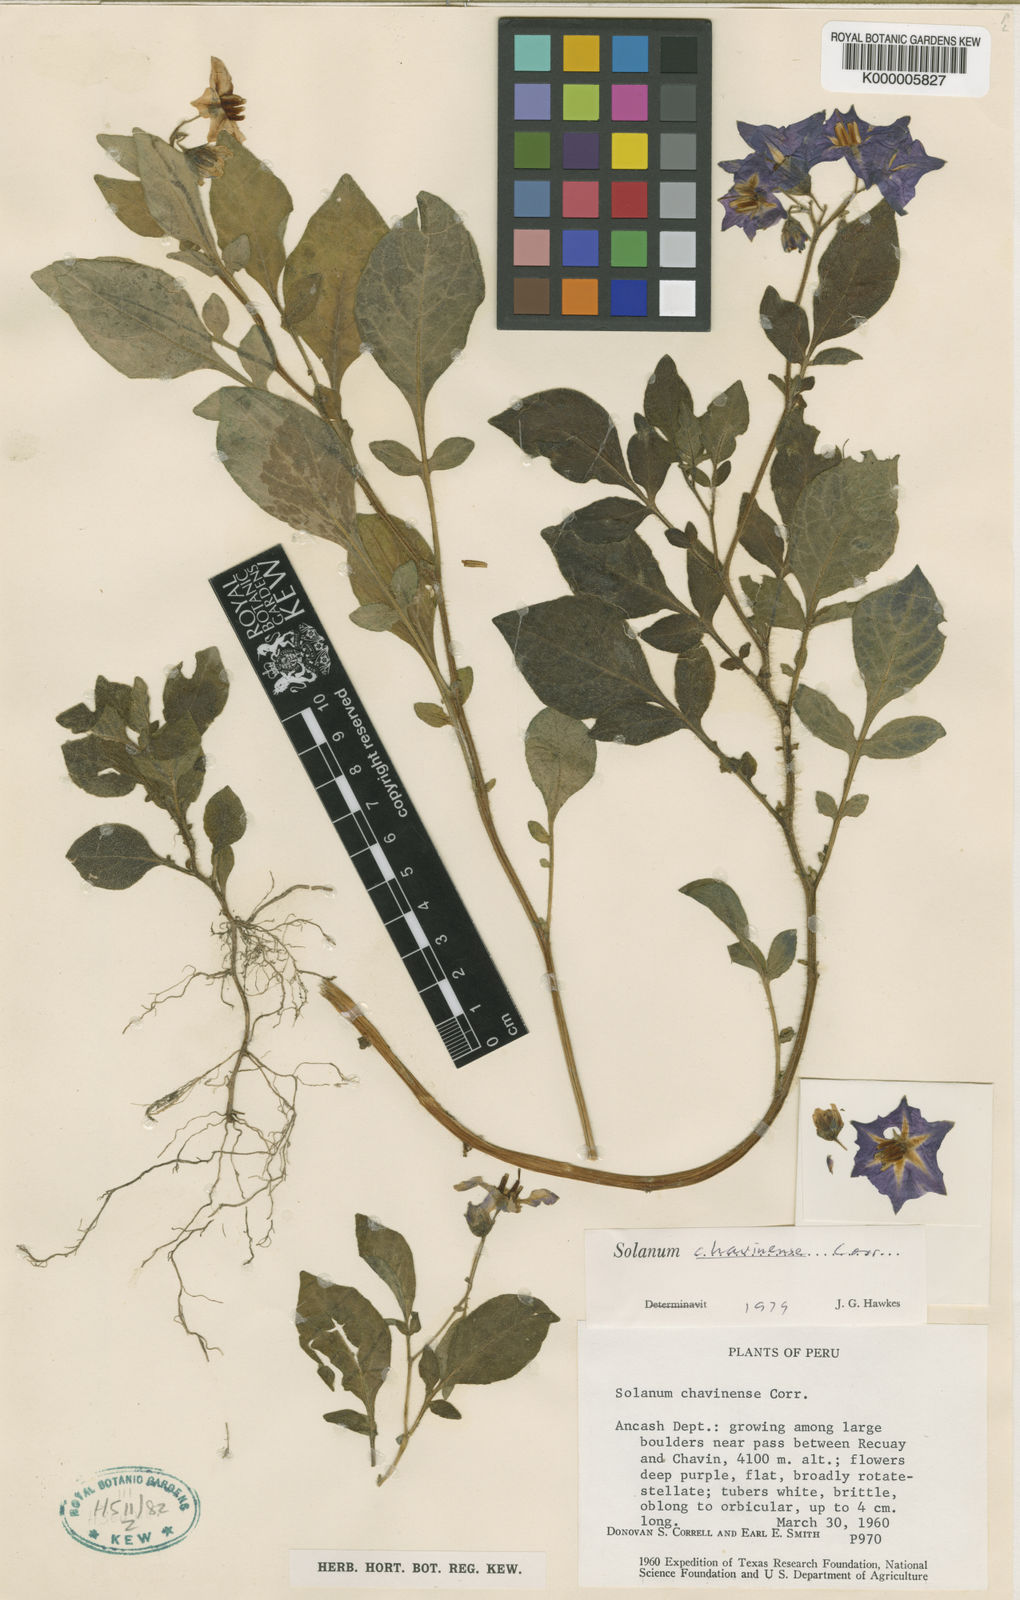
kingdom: Plantae
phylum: Tracheophyta
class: Magnoliopsida
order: Solanales
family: Solanaceae
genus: Solanum
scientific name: Solanum dolichocremastrum
